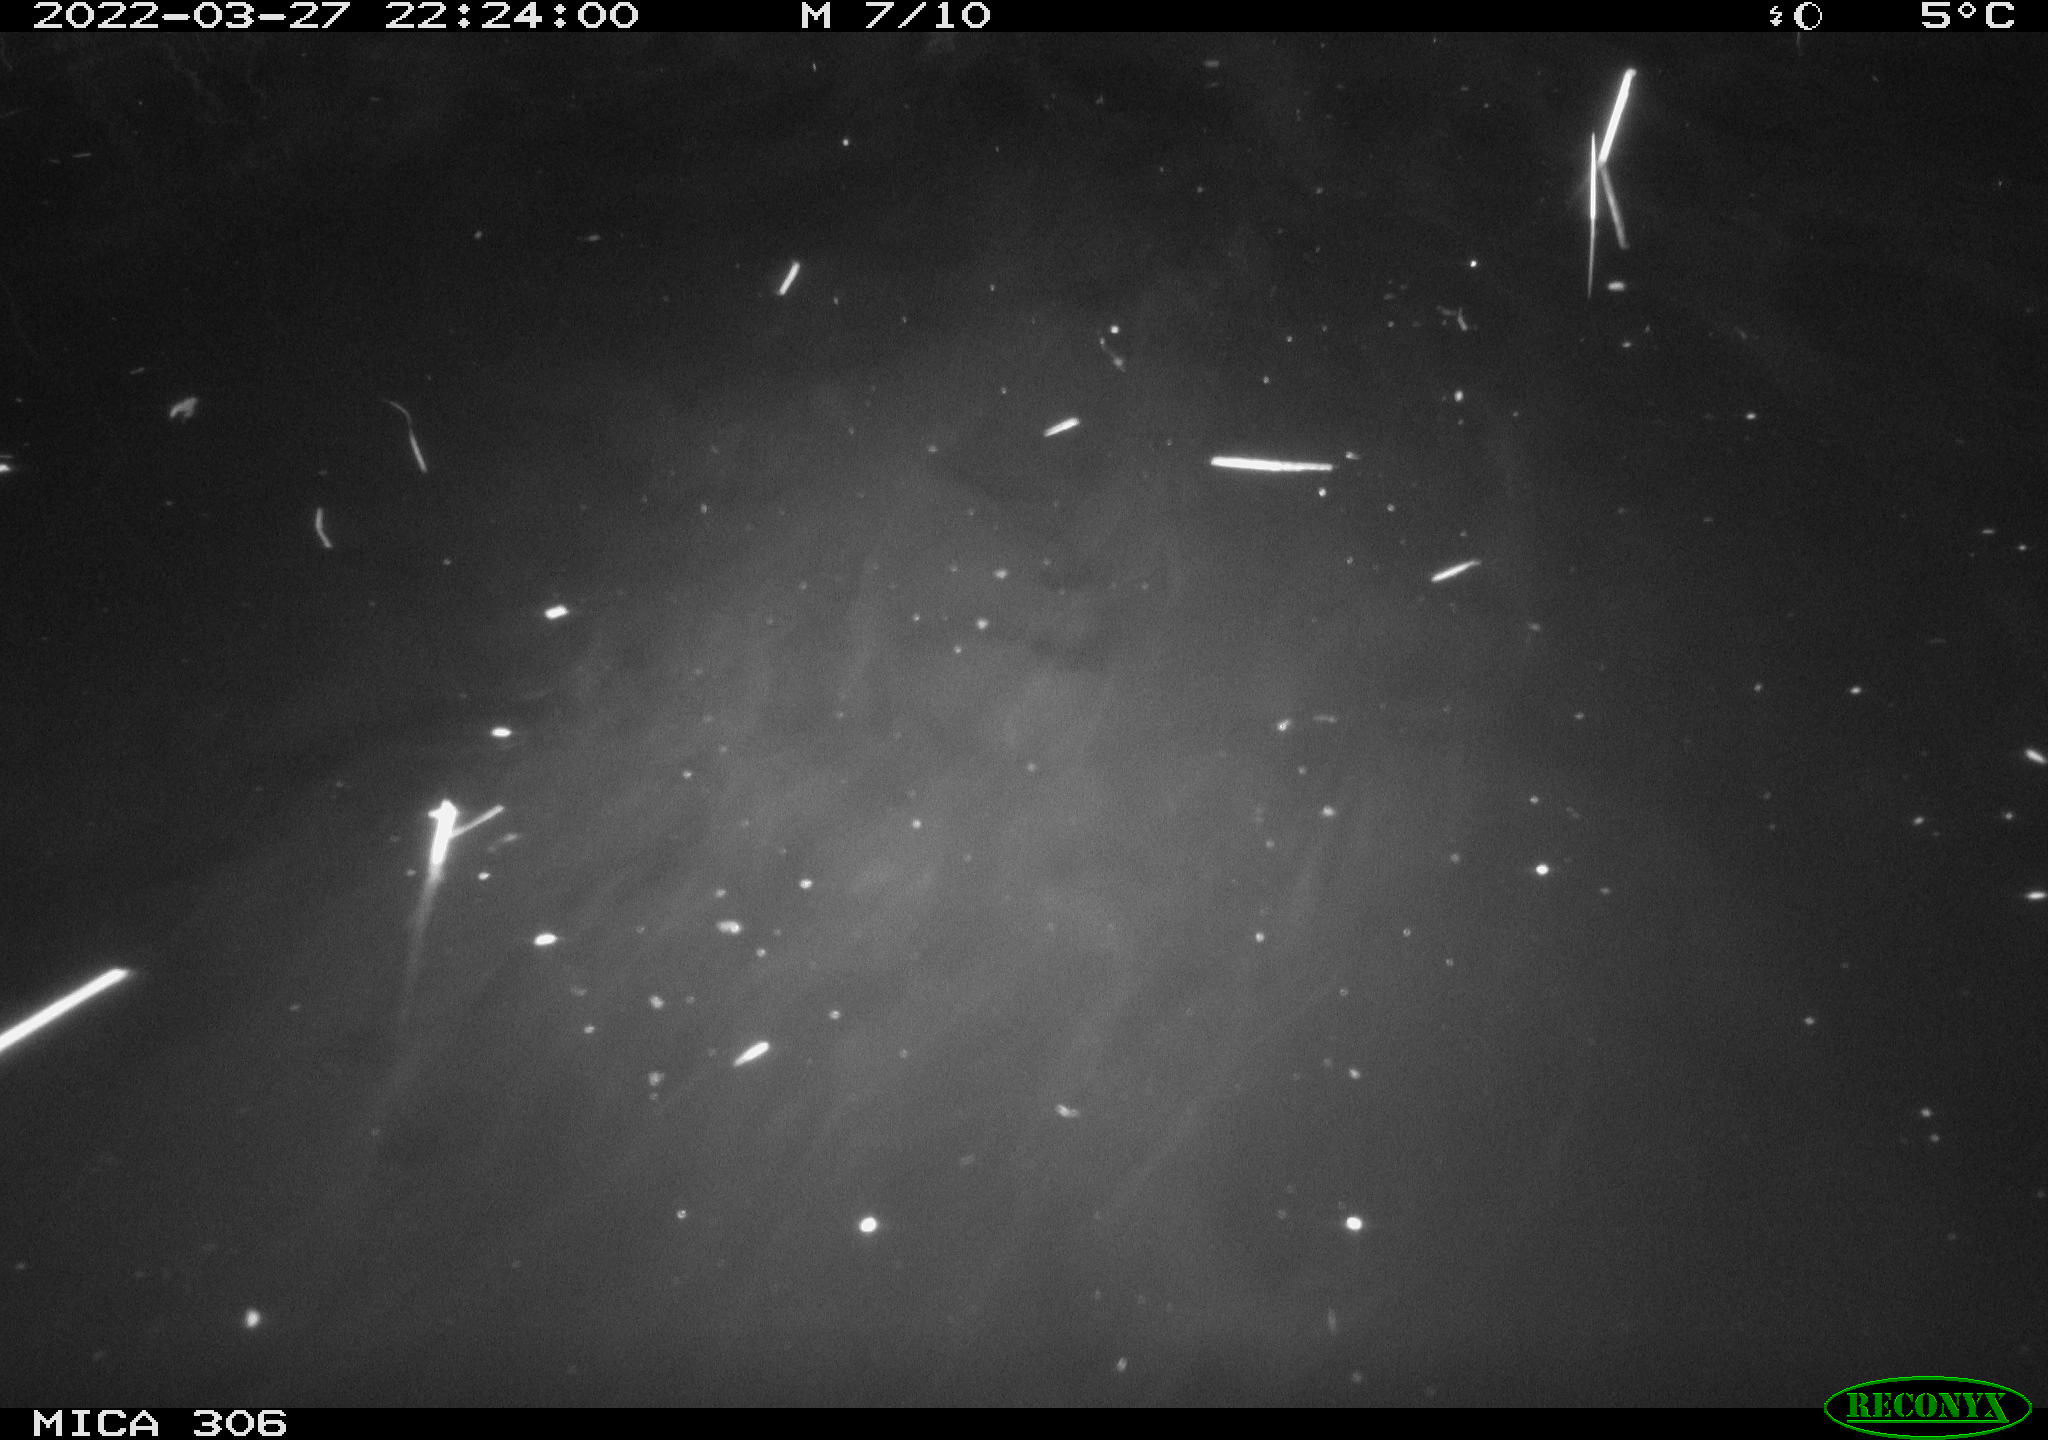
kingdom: Animalia
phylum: Chordata
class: Aves
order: Anseriformes
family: Anatidae
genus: Anas
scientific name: Anas
